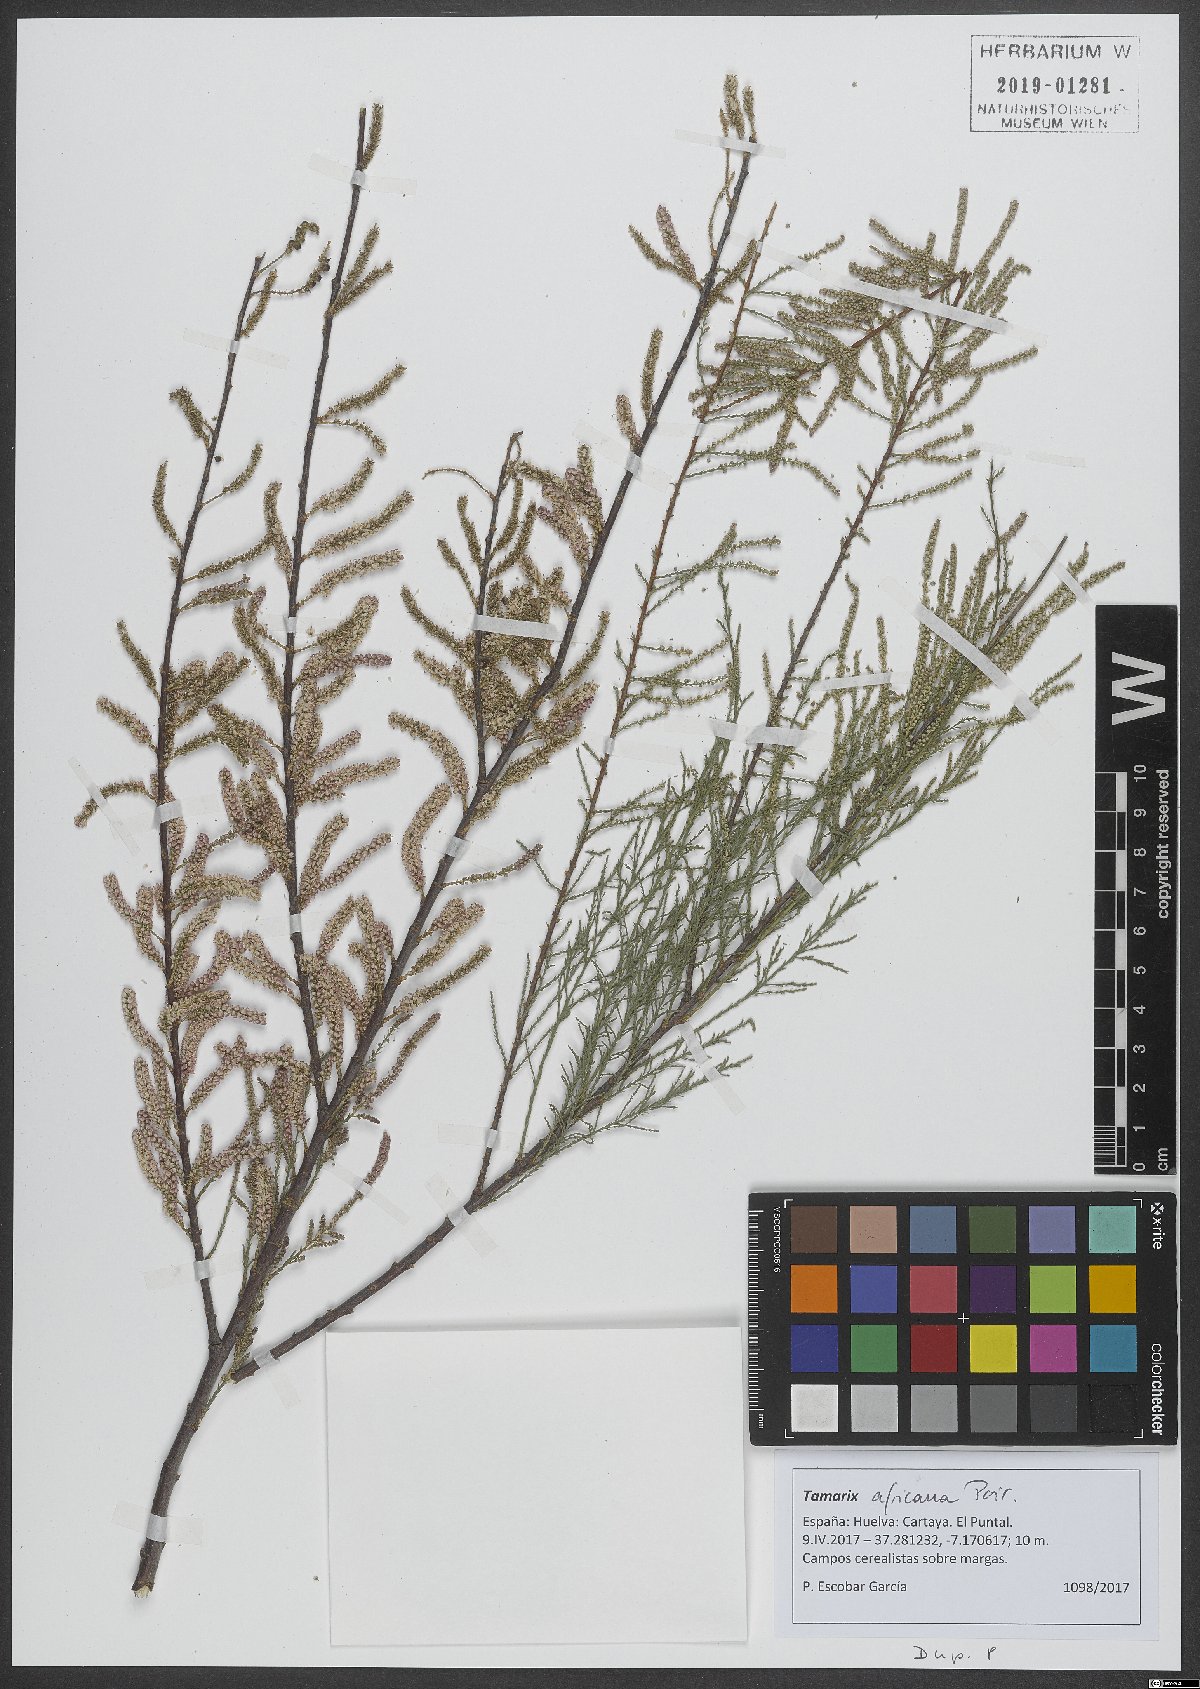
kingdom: Plantae
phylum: Tracheophyta
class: Magnoliopsida
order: Caryophyllales
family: Tamaricaceae
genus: Tamarix
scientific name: Tamarix africana
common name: African tamarisk
